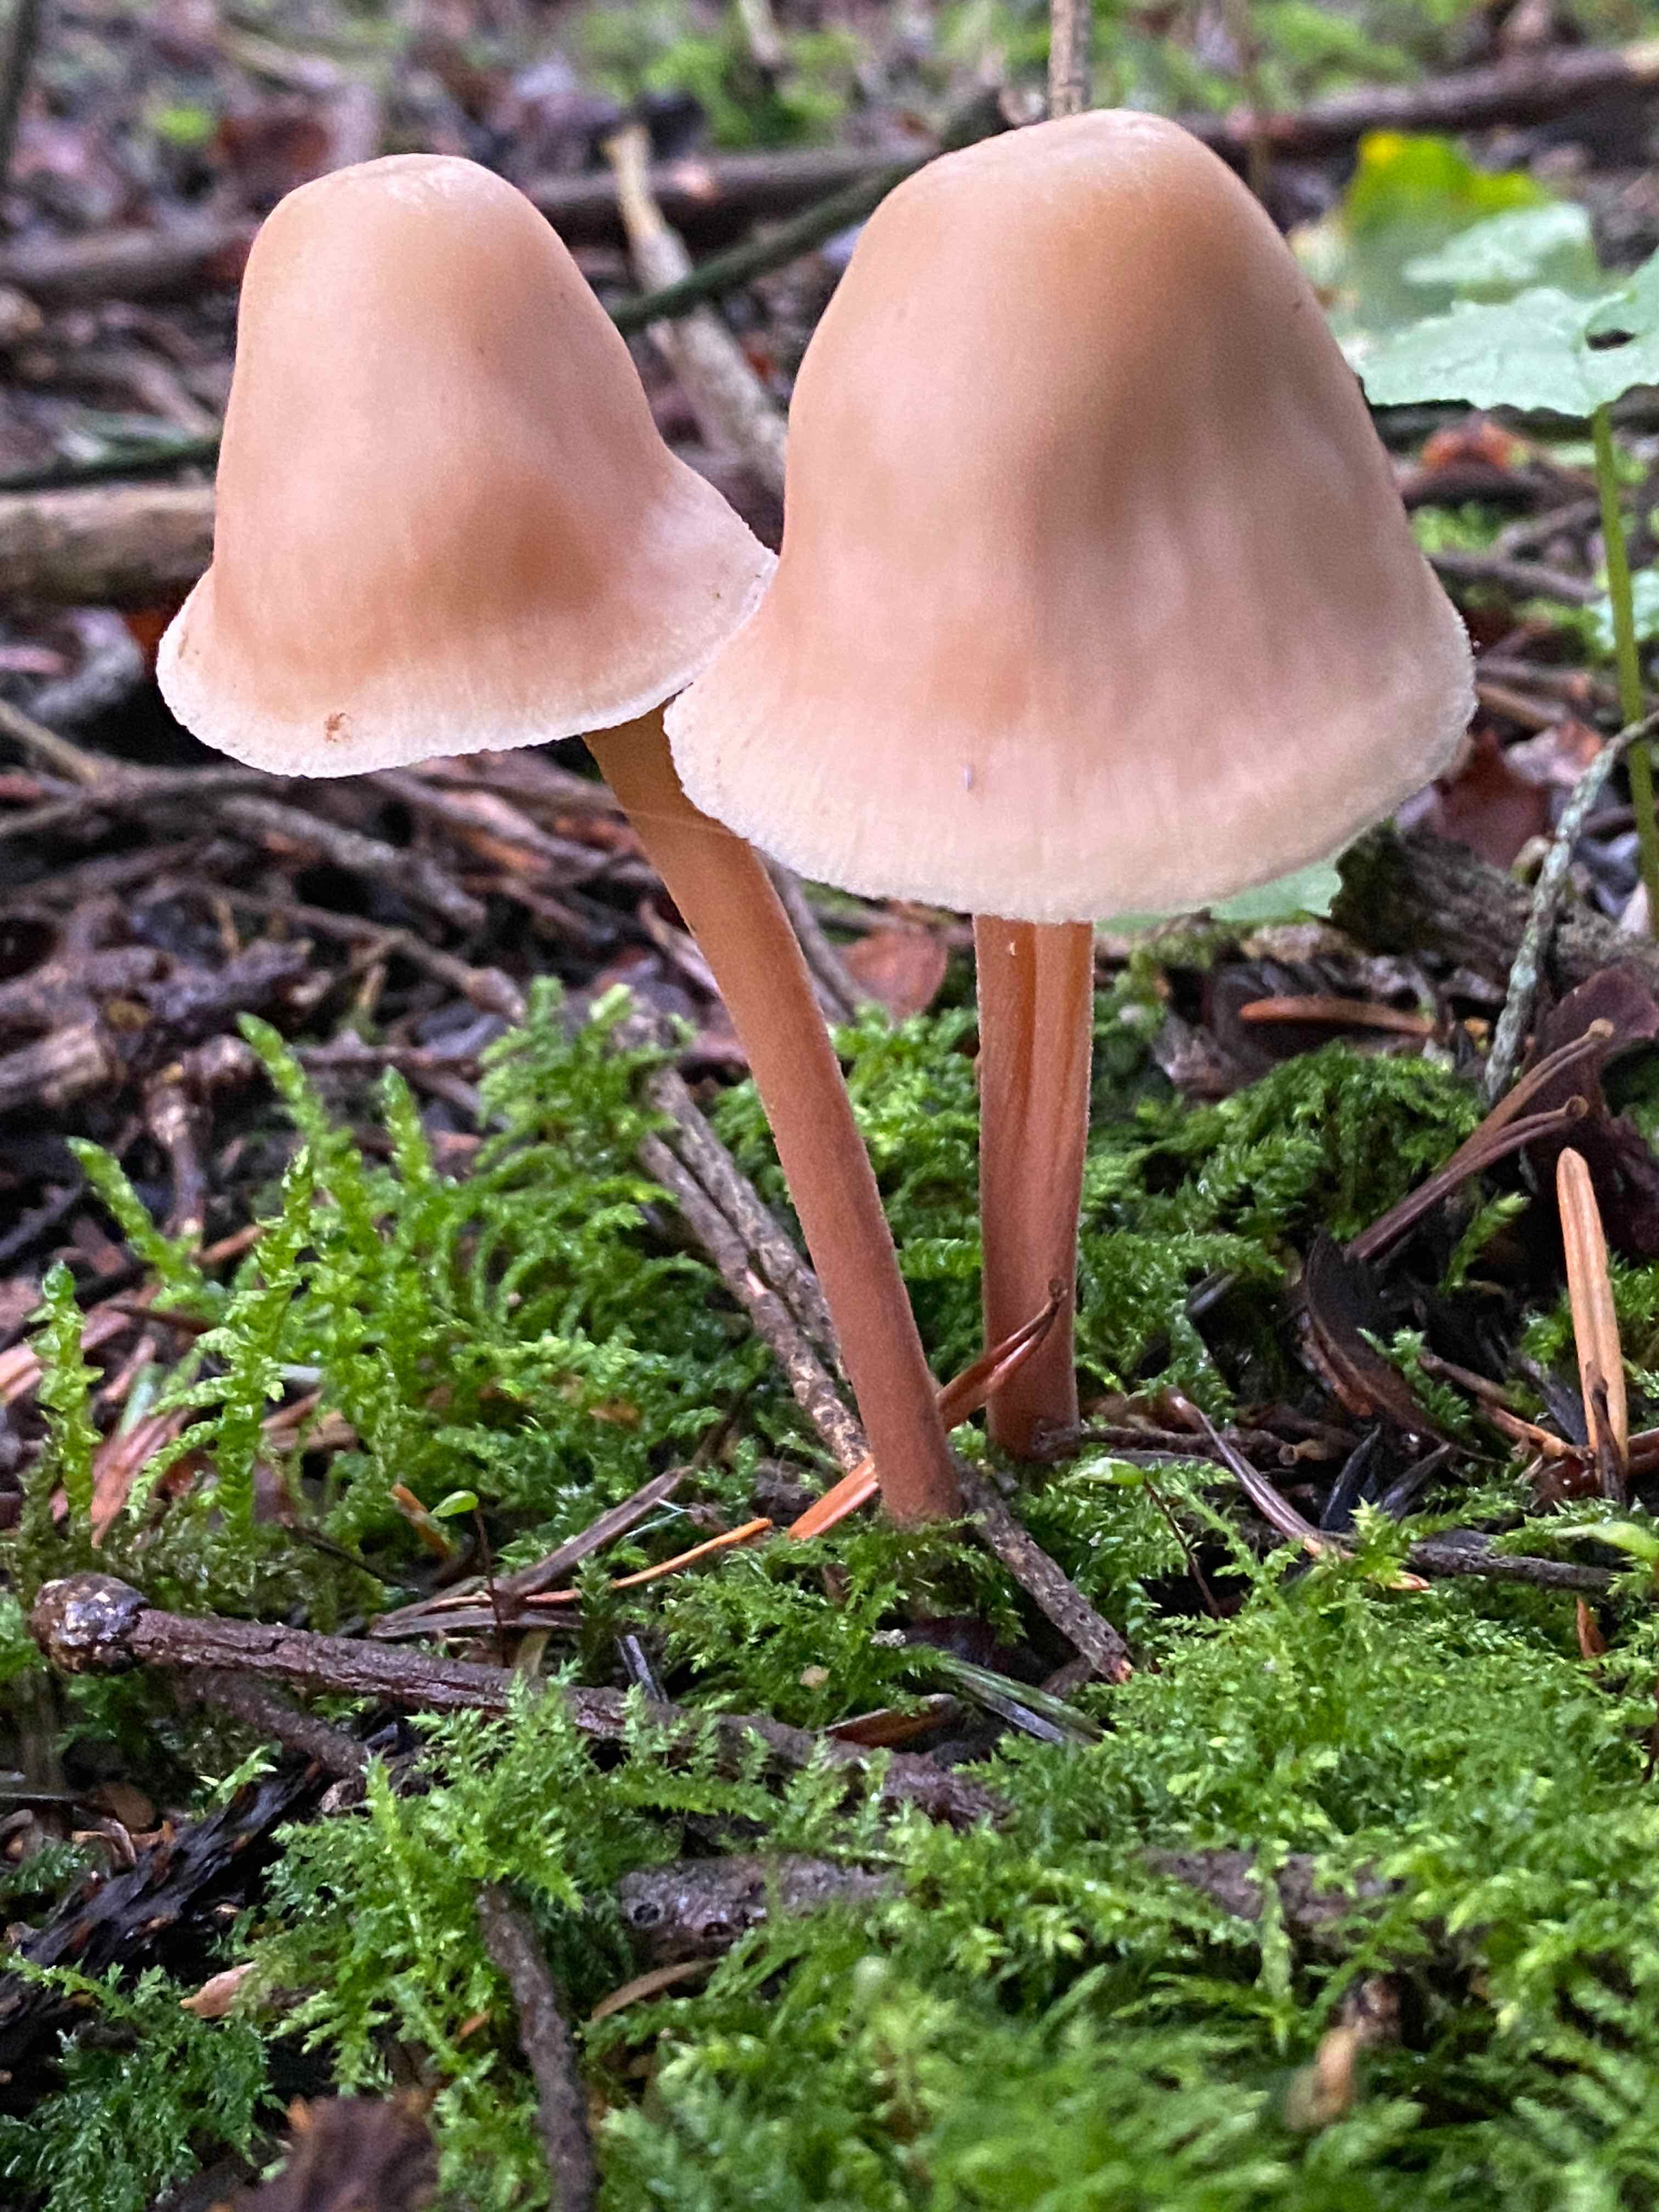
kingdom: Fungi
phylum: Basidiomycota
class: Agaricomycetes
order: Agaricales
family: Omphalotaceae
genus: Collybiopsis
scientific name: Collybiopsis confluens
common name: knippe-fladhat
